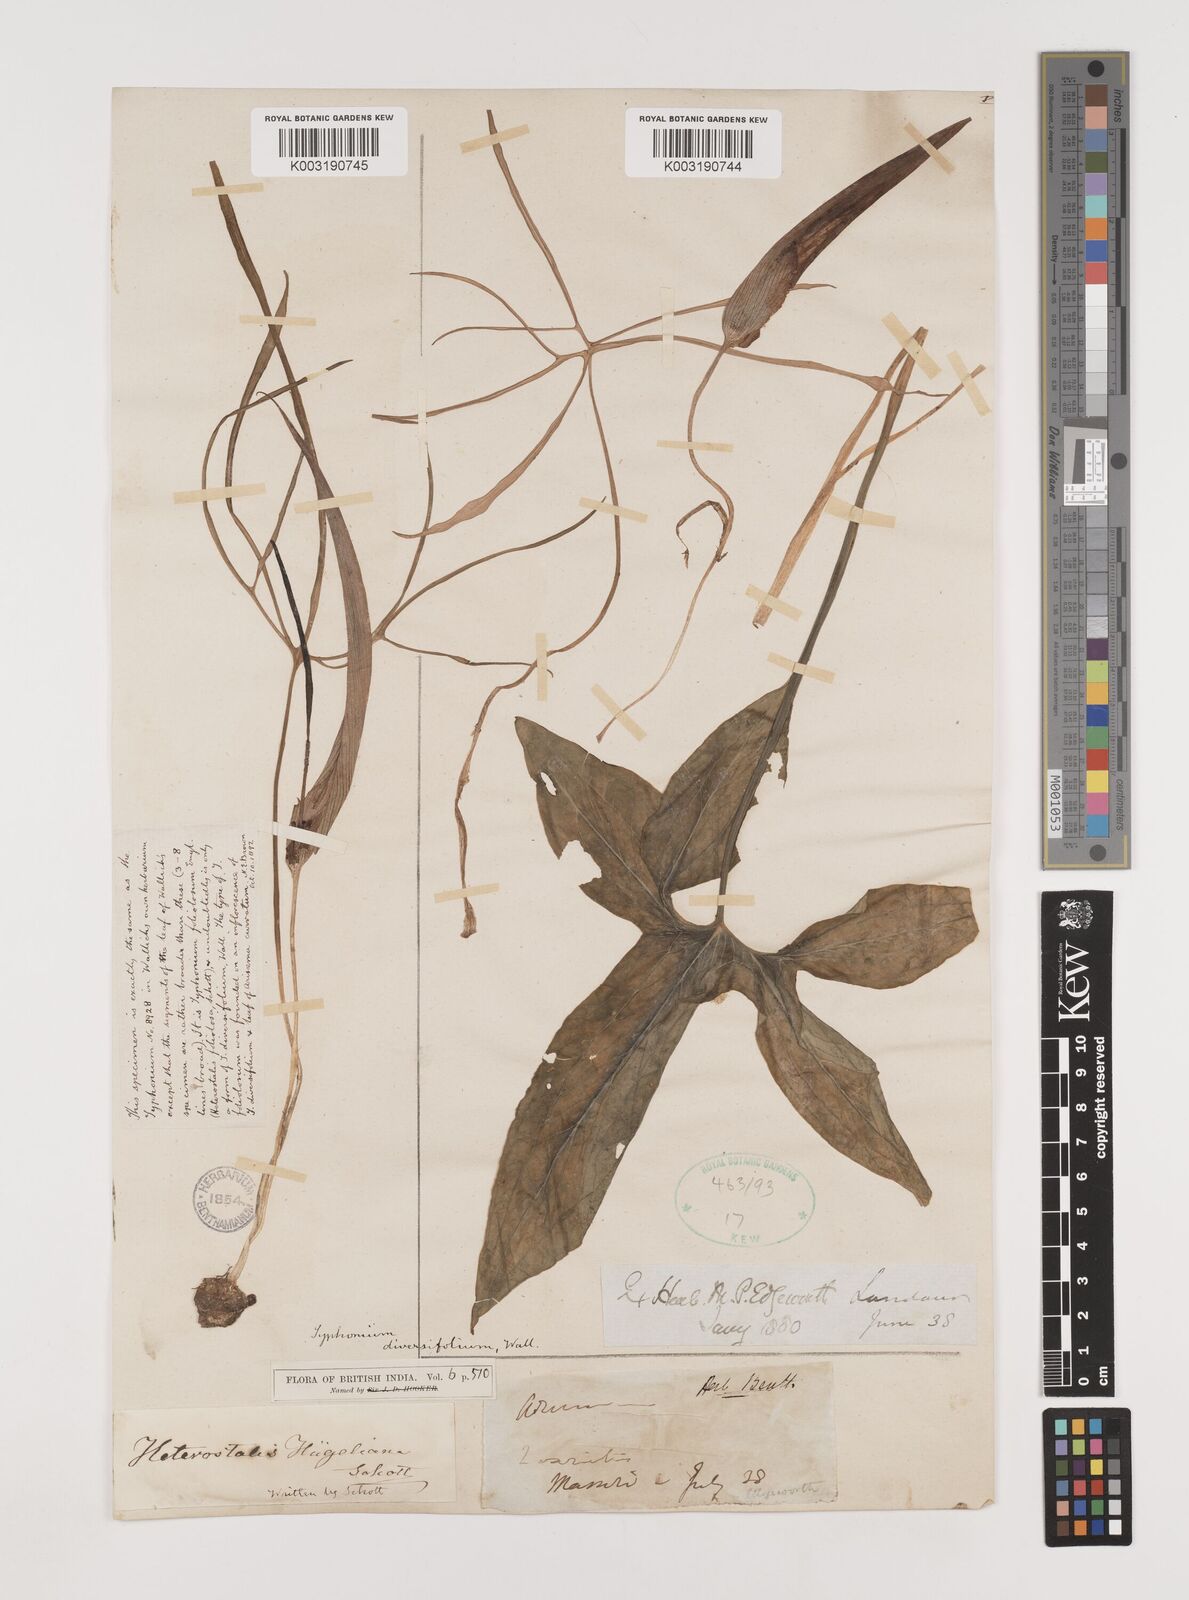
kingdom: Plantae
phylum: Tracheophyta
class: Liliopsida
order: Alismatales
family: Araceae
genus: Sauromatum
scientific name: Sauromatum diversifolium
